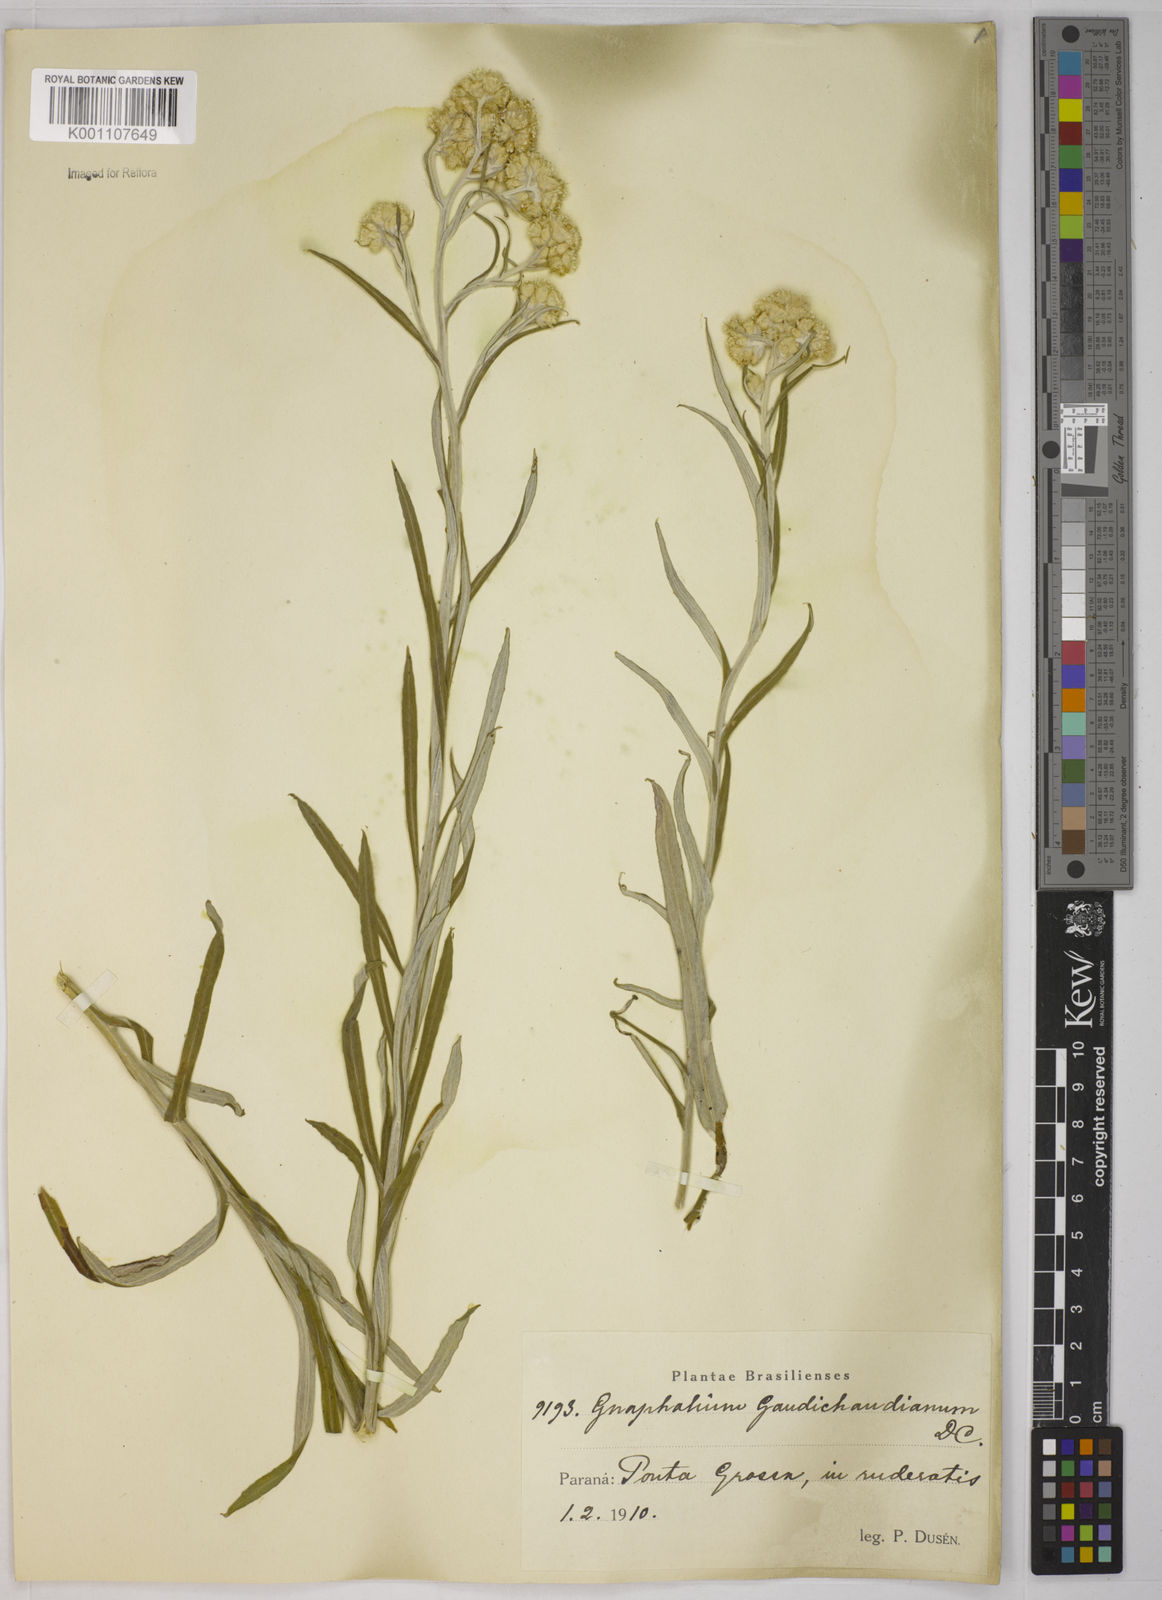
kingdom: Plantae
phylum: Tracheophyta
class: Magnoliopsida
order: Asterales
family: Asteraceae
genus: Pseudognaphalium
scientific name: Pseudognaphalium cheiranthifolium
